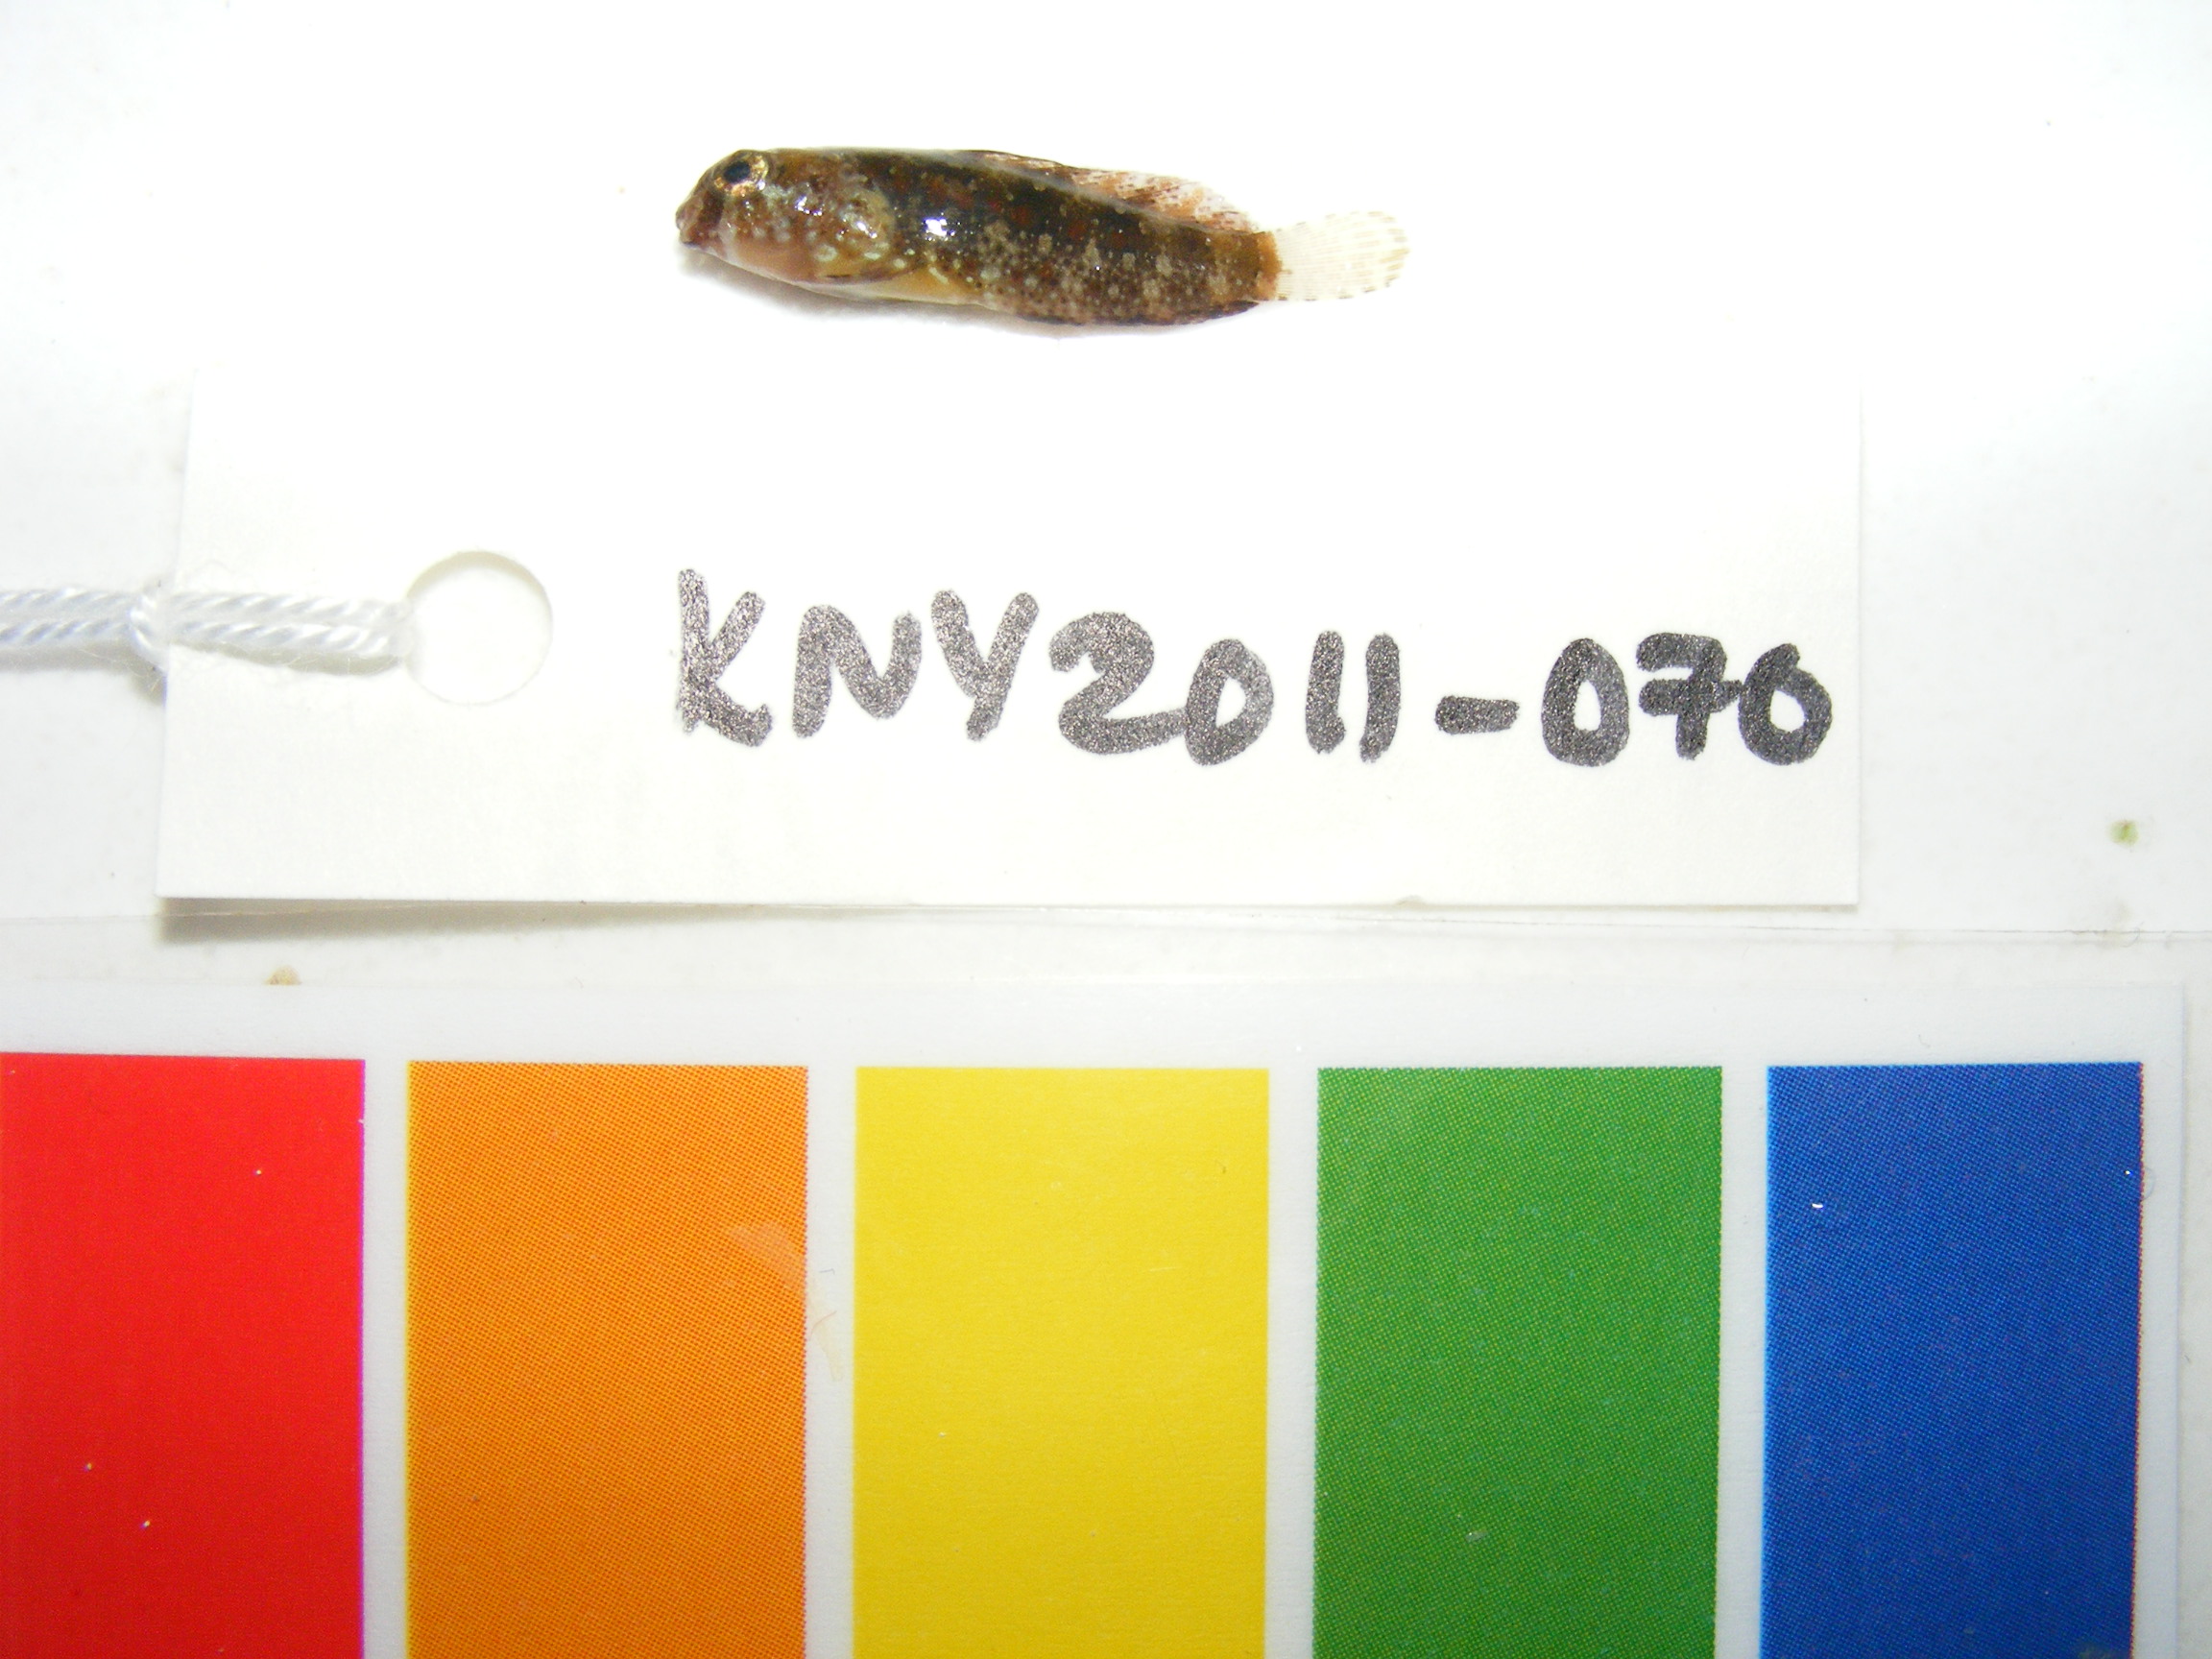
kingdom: Animalia
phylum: Chordata
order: Perciformes
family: Blenniidae
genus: Blennius
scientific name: Blennius
